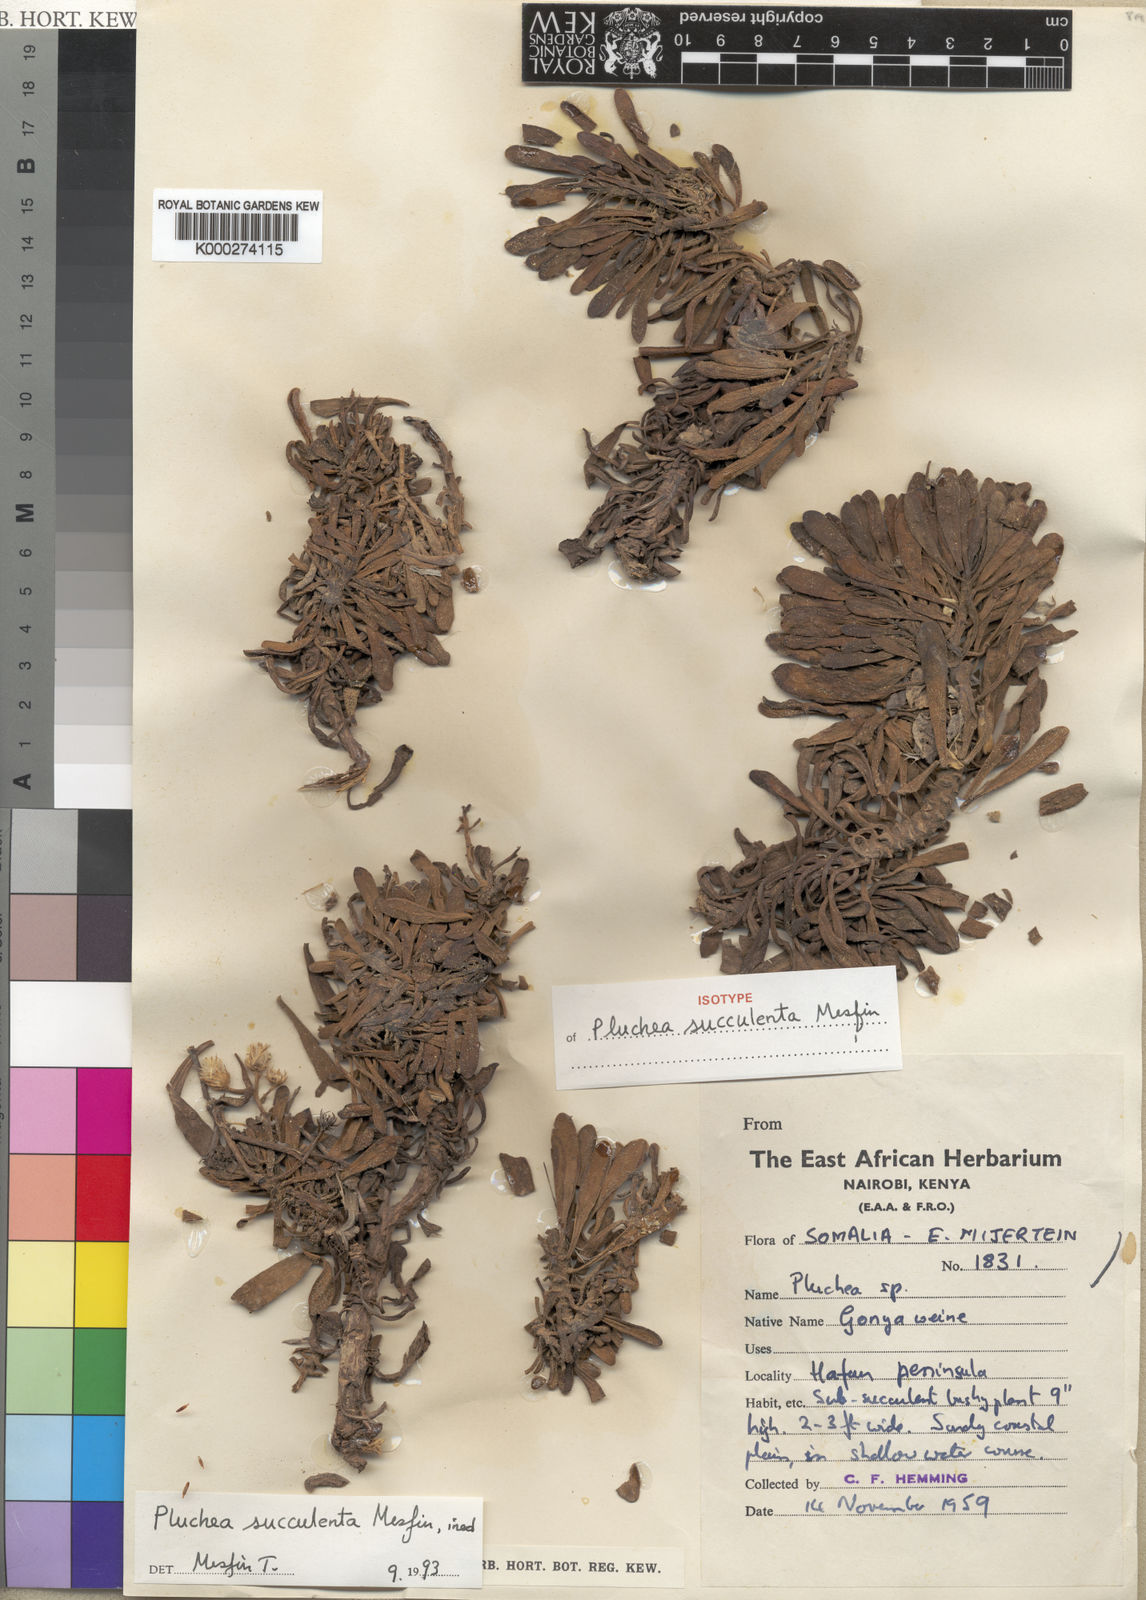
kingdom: Plantae
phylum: Tracheophyta
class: Magnoliopsida
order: Asterales
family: Asteraceae
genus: Pluchea
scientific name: Pluchea succulenta
